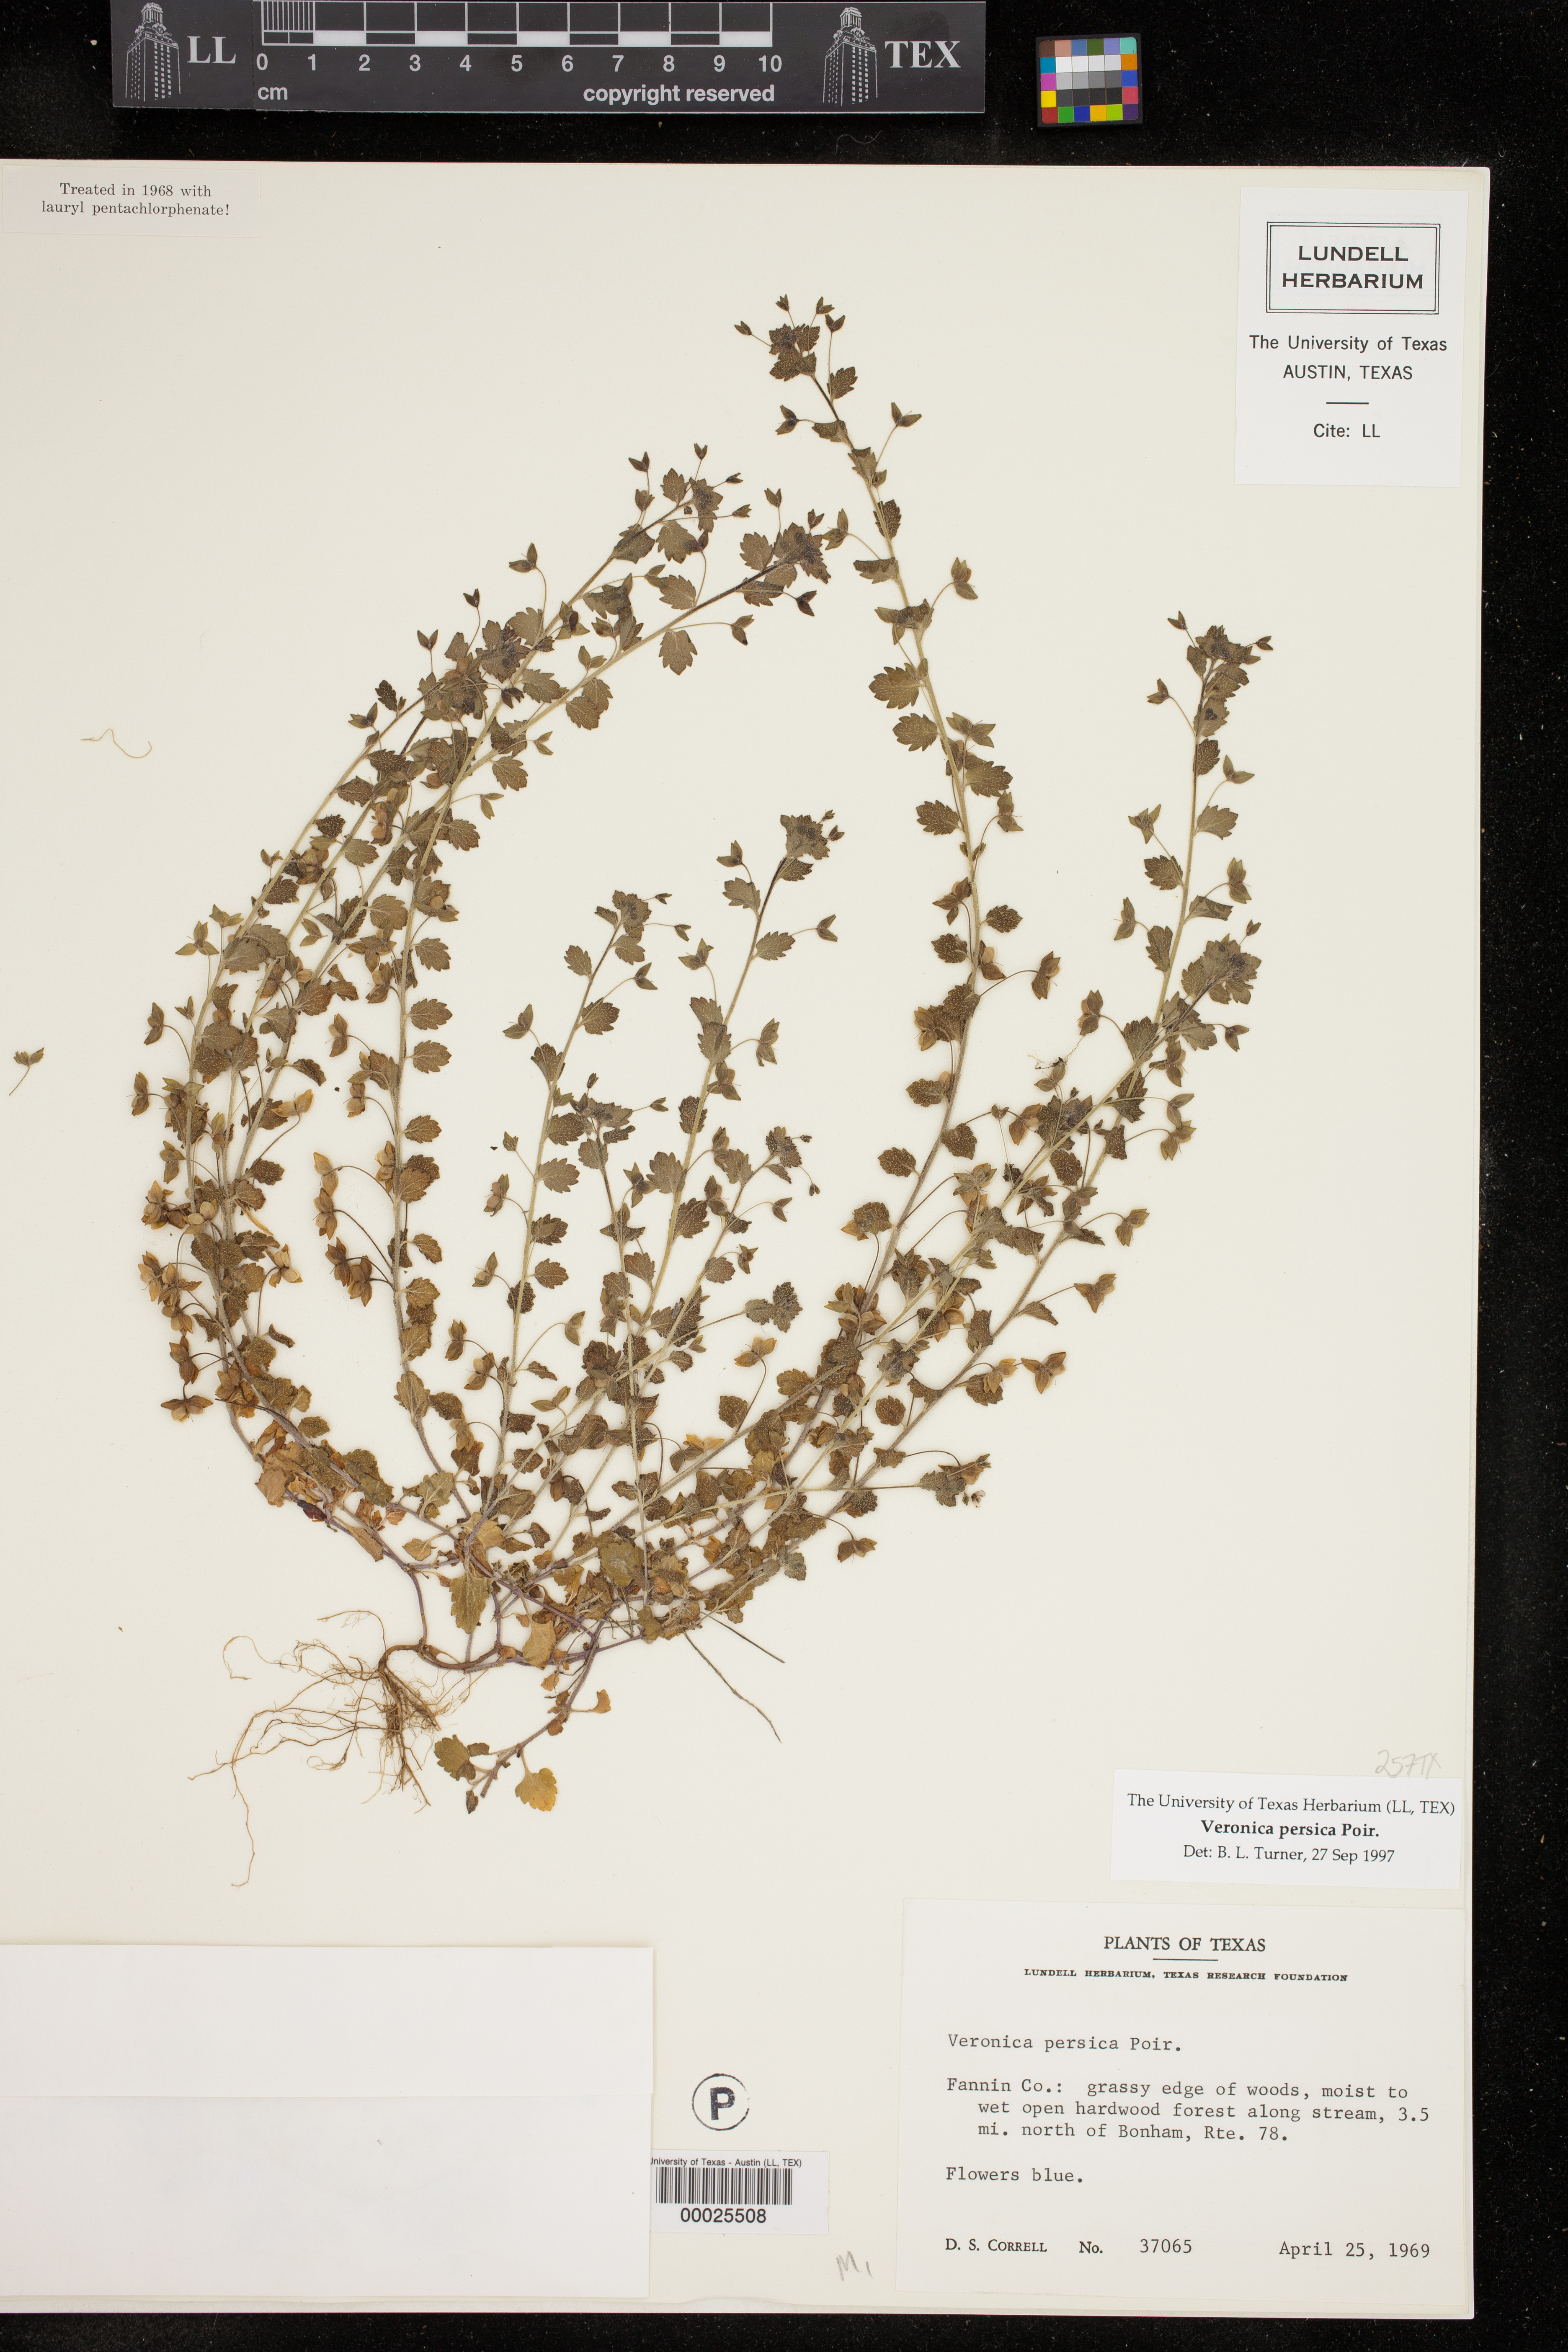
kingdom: Plantae
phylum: Tracheophyta
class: Magnoliopsida
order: Lamiales
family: Plantaginaceae
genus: Veronica
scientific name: Veronica persica
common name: Common field-speedwell
